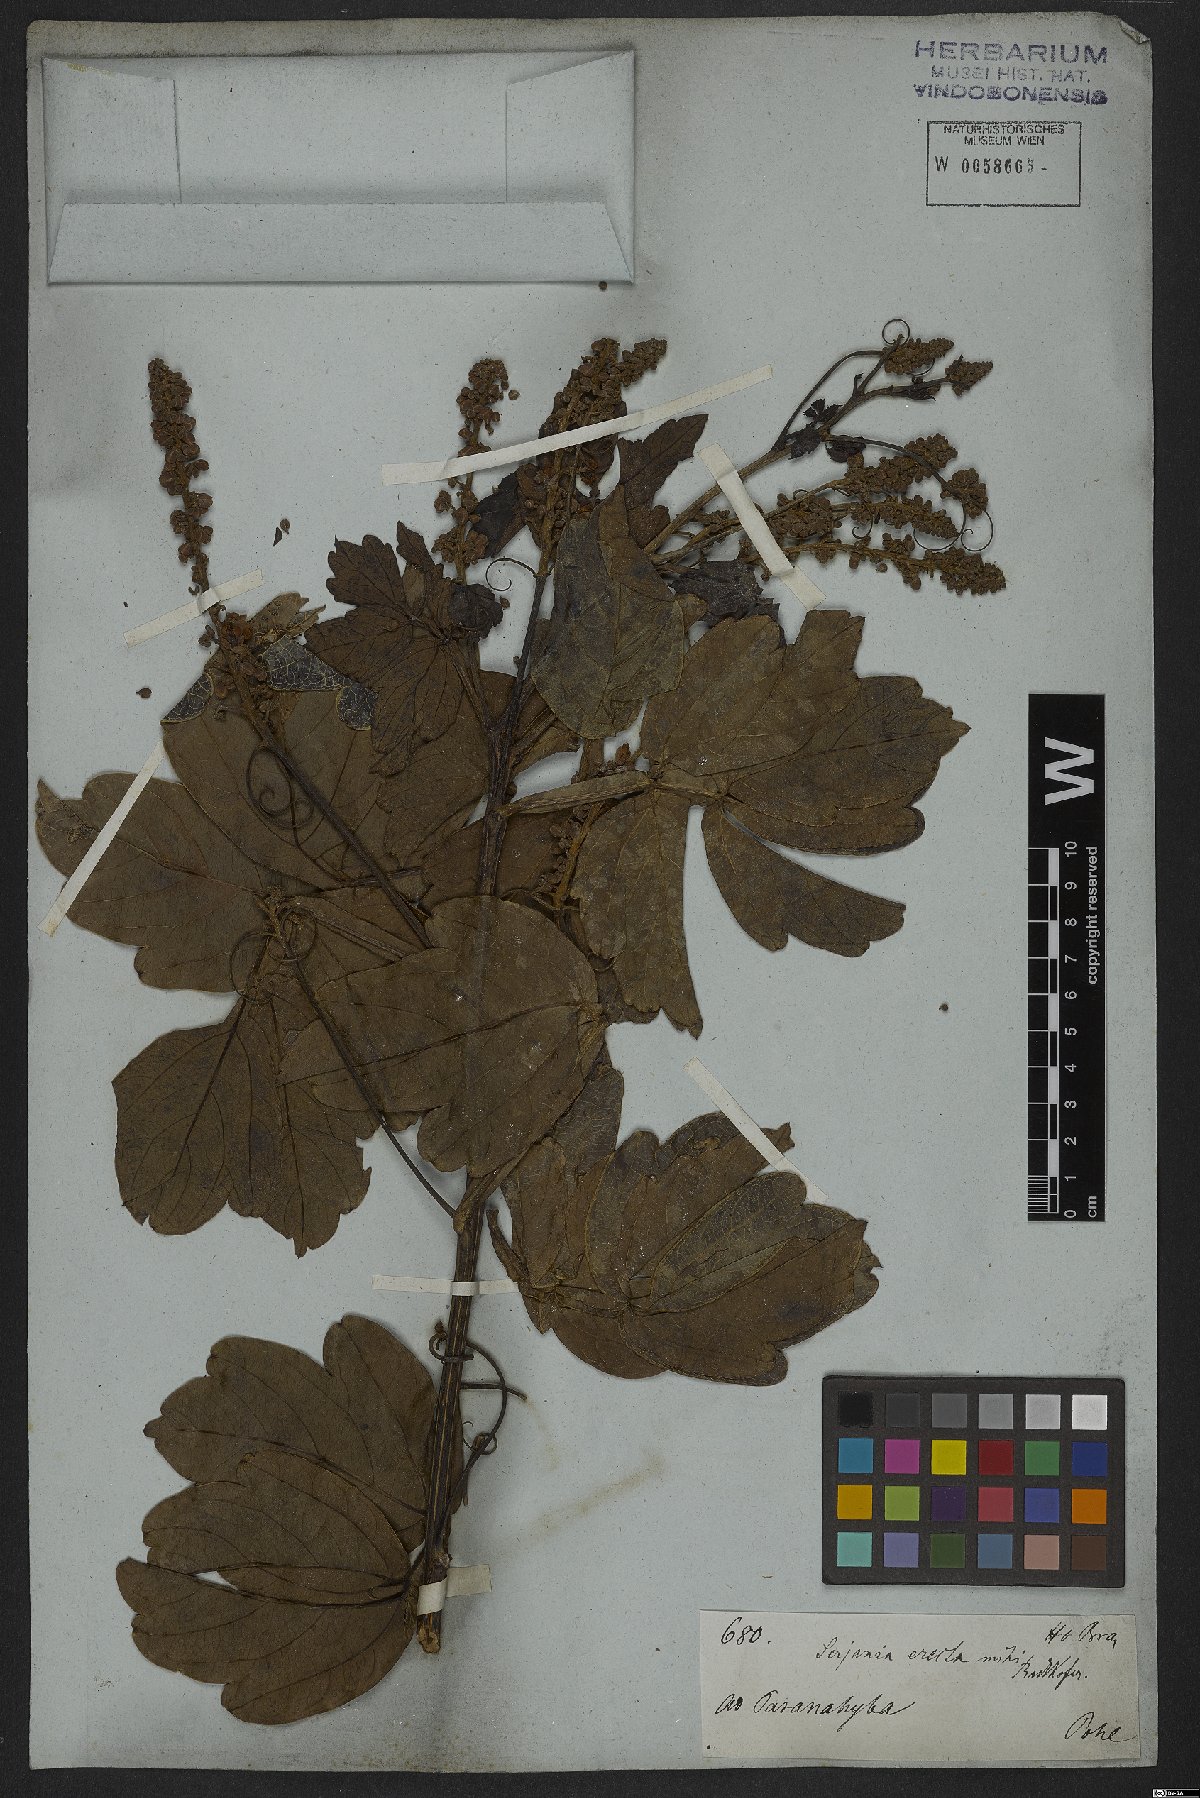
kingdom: Plantae
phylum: Tracheophyta
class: Magnoliopsida
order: Sapindales
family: Sapindaceae
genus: Serjania
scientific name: Serjania erecta
